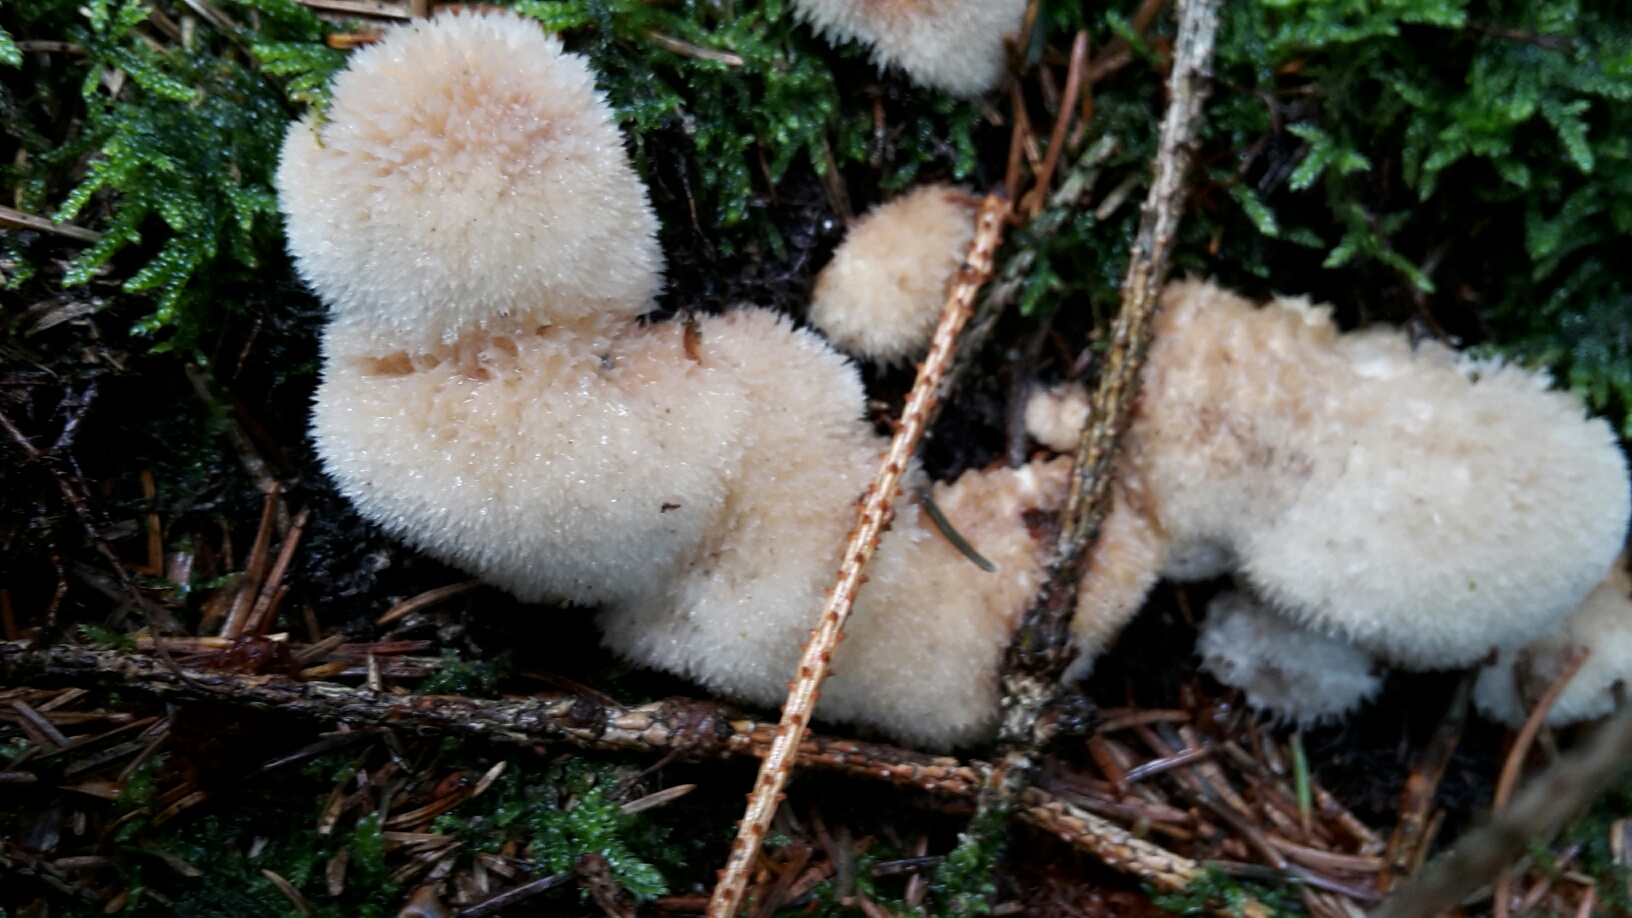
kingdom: Fungi
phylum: Basidiomycota
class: Agaricomycetes
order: Polyporales
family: Dacryobolaceae
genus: Postia
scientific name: Postia ptychogaster
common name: støvende kødporesvamp
